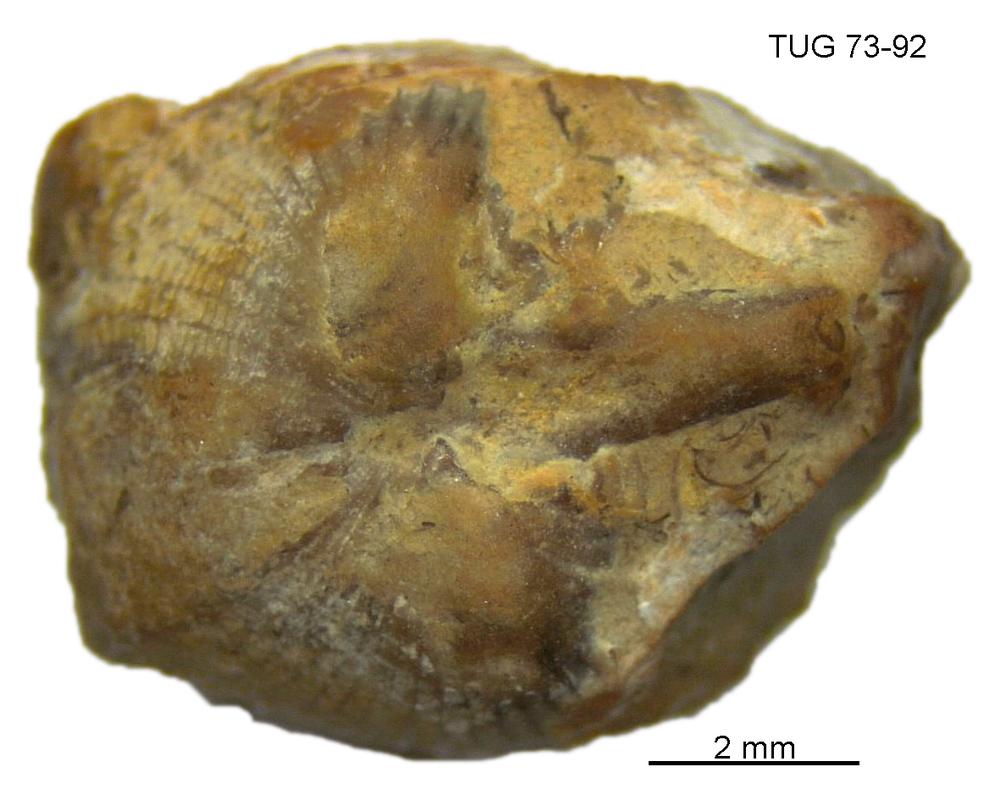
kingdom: Animalia
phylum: Mollusca
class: Rostroconchia
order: Conocardiida
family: Bransoniidae
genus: Mulceodens
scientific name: Mulceodens jaanussoni
